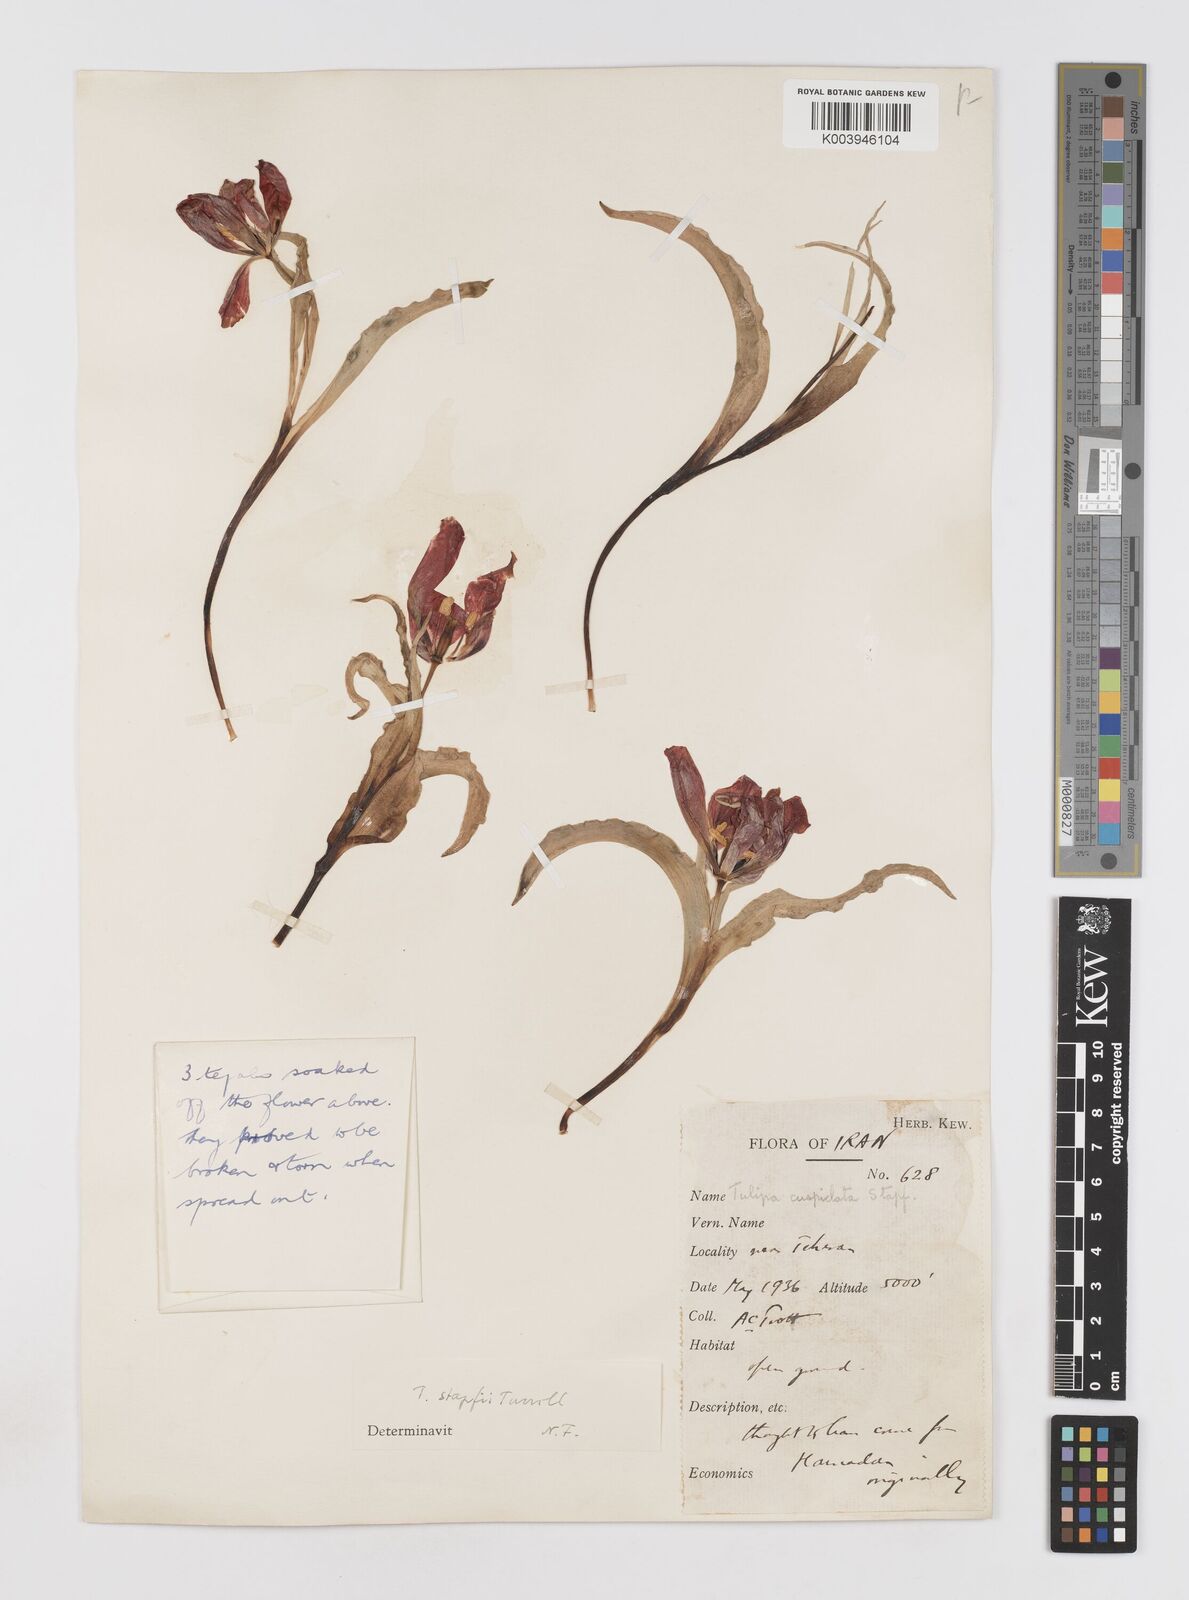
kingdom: Plantae
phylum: Tracheophyta
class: Liliopsida
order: Liliales
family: Liliaceae
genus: Tulipa
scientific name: Tulipa systola
